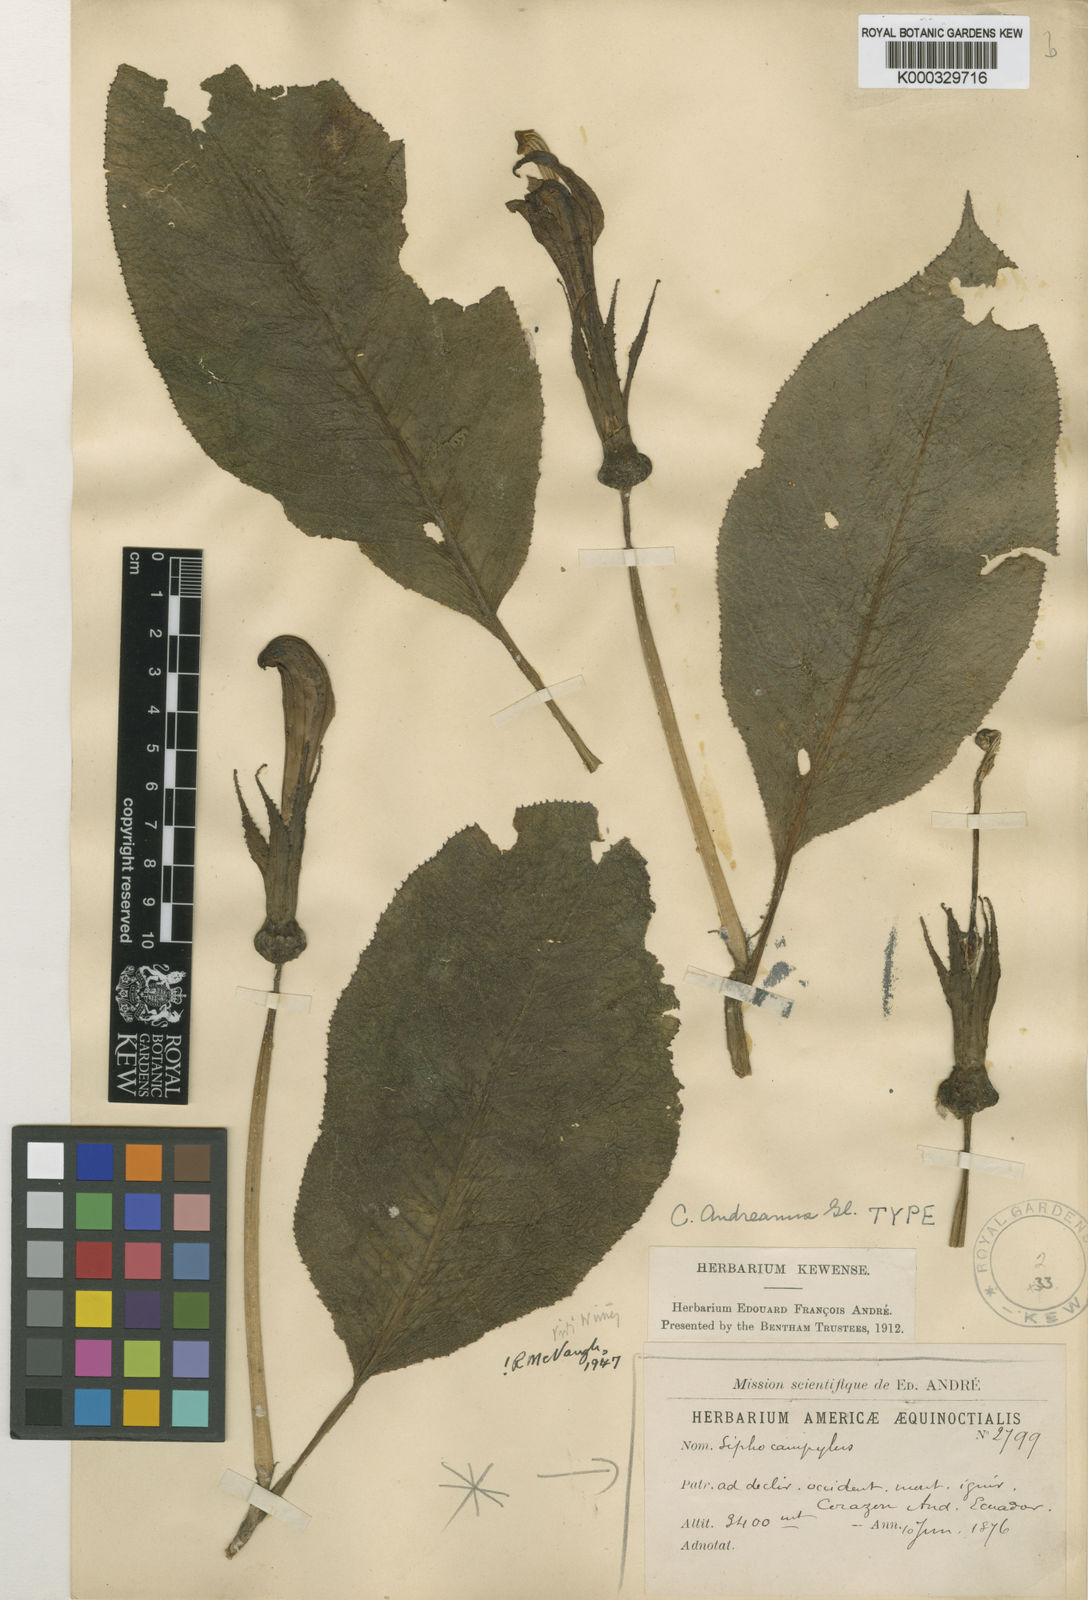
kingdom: Plantae
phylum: Tracheophyta
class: Magnoliopsida
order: Asterales
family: Campanulaceae
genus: Centropogon
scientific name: Centropogon nigricans
